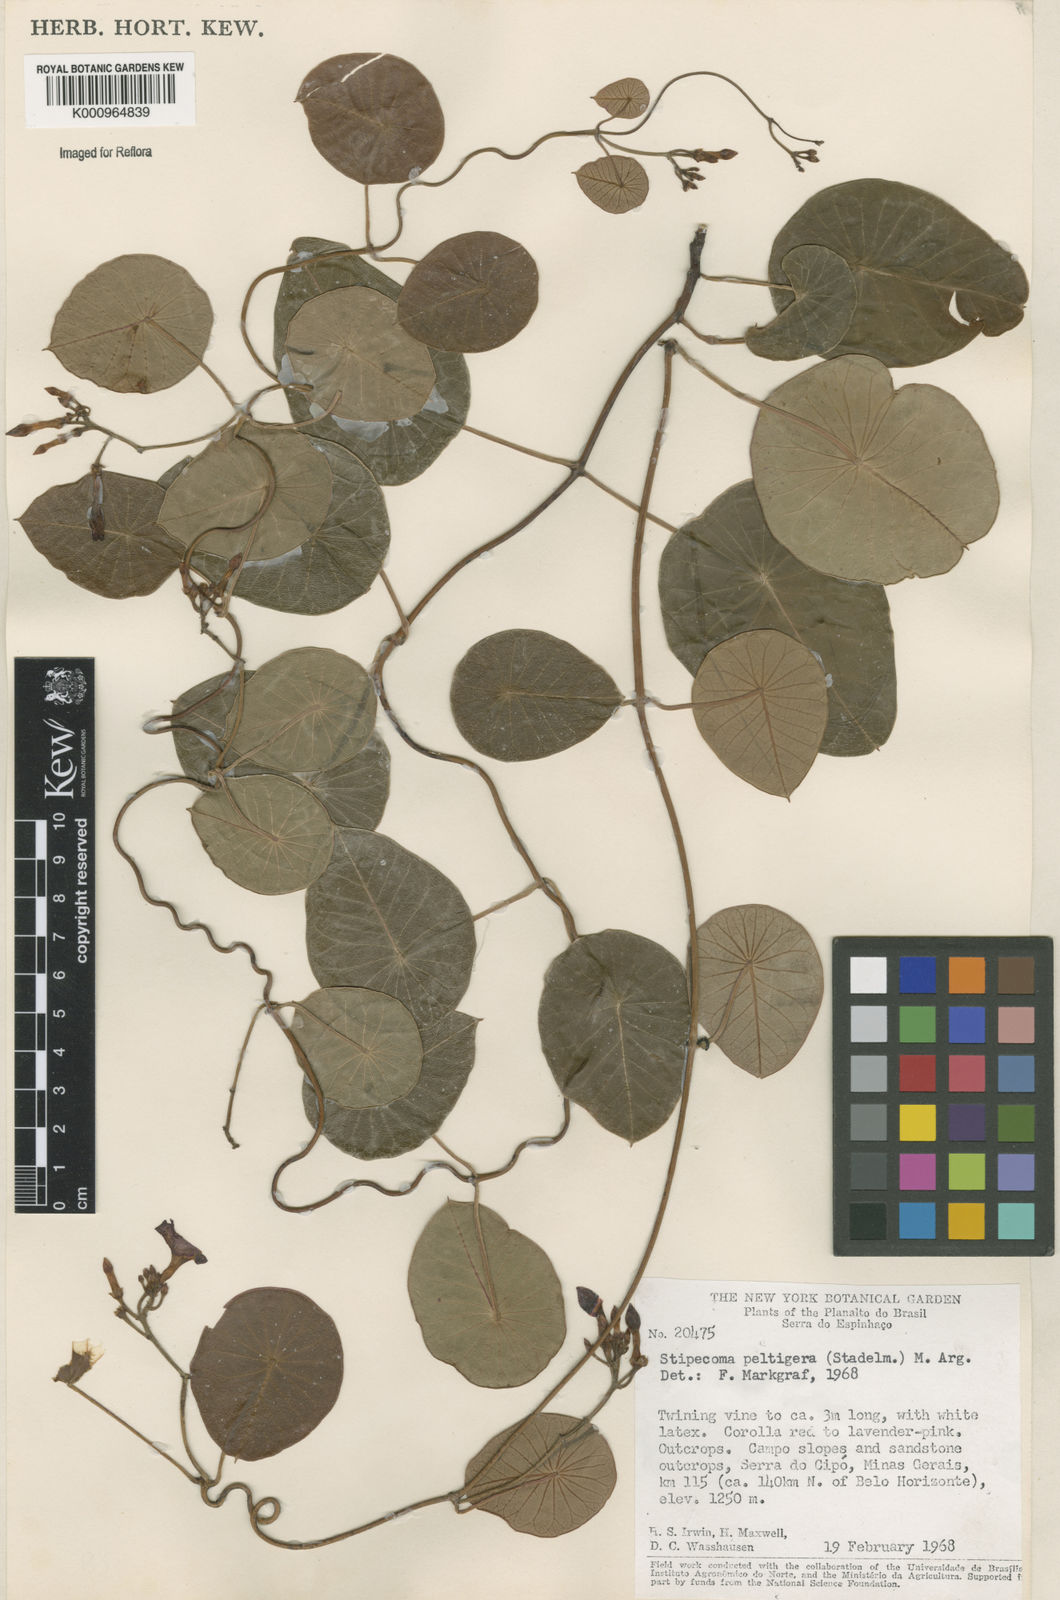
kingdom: Plantae
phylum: Tracheophyta
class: Magnoliopsida
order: Gentianales
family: Apocynaceae
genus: Stipecoma
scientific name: Stipecoma
